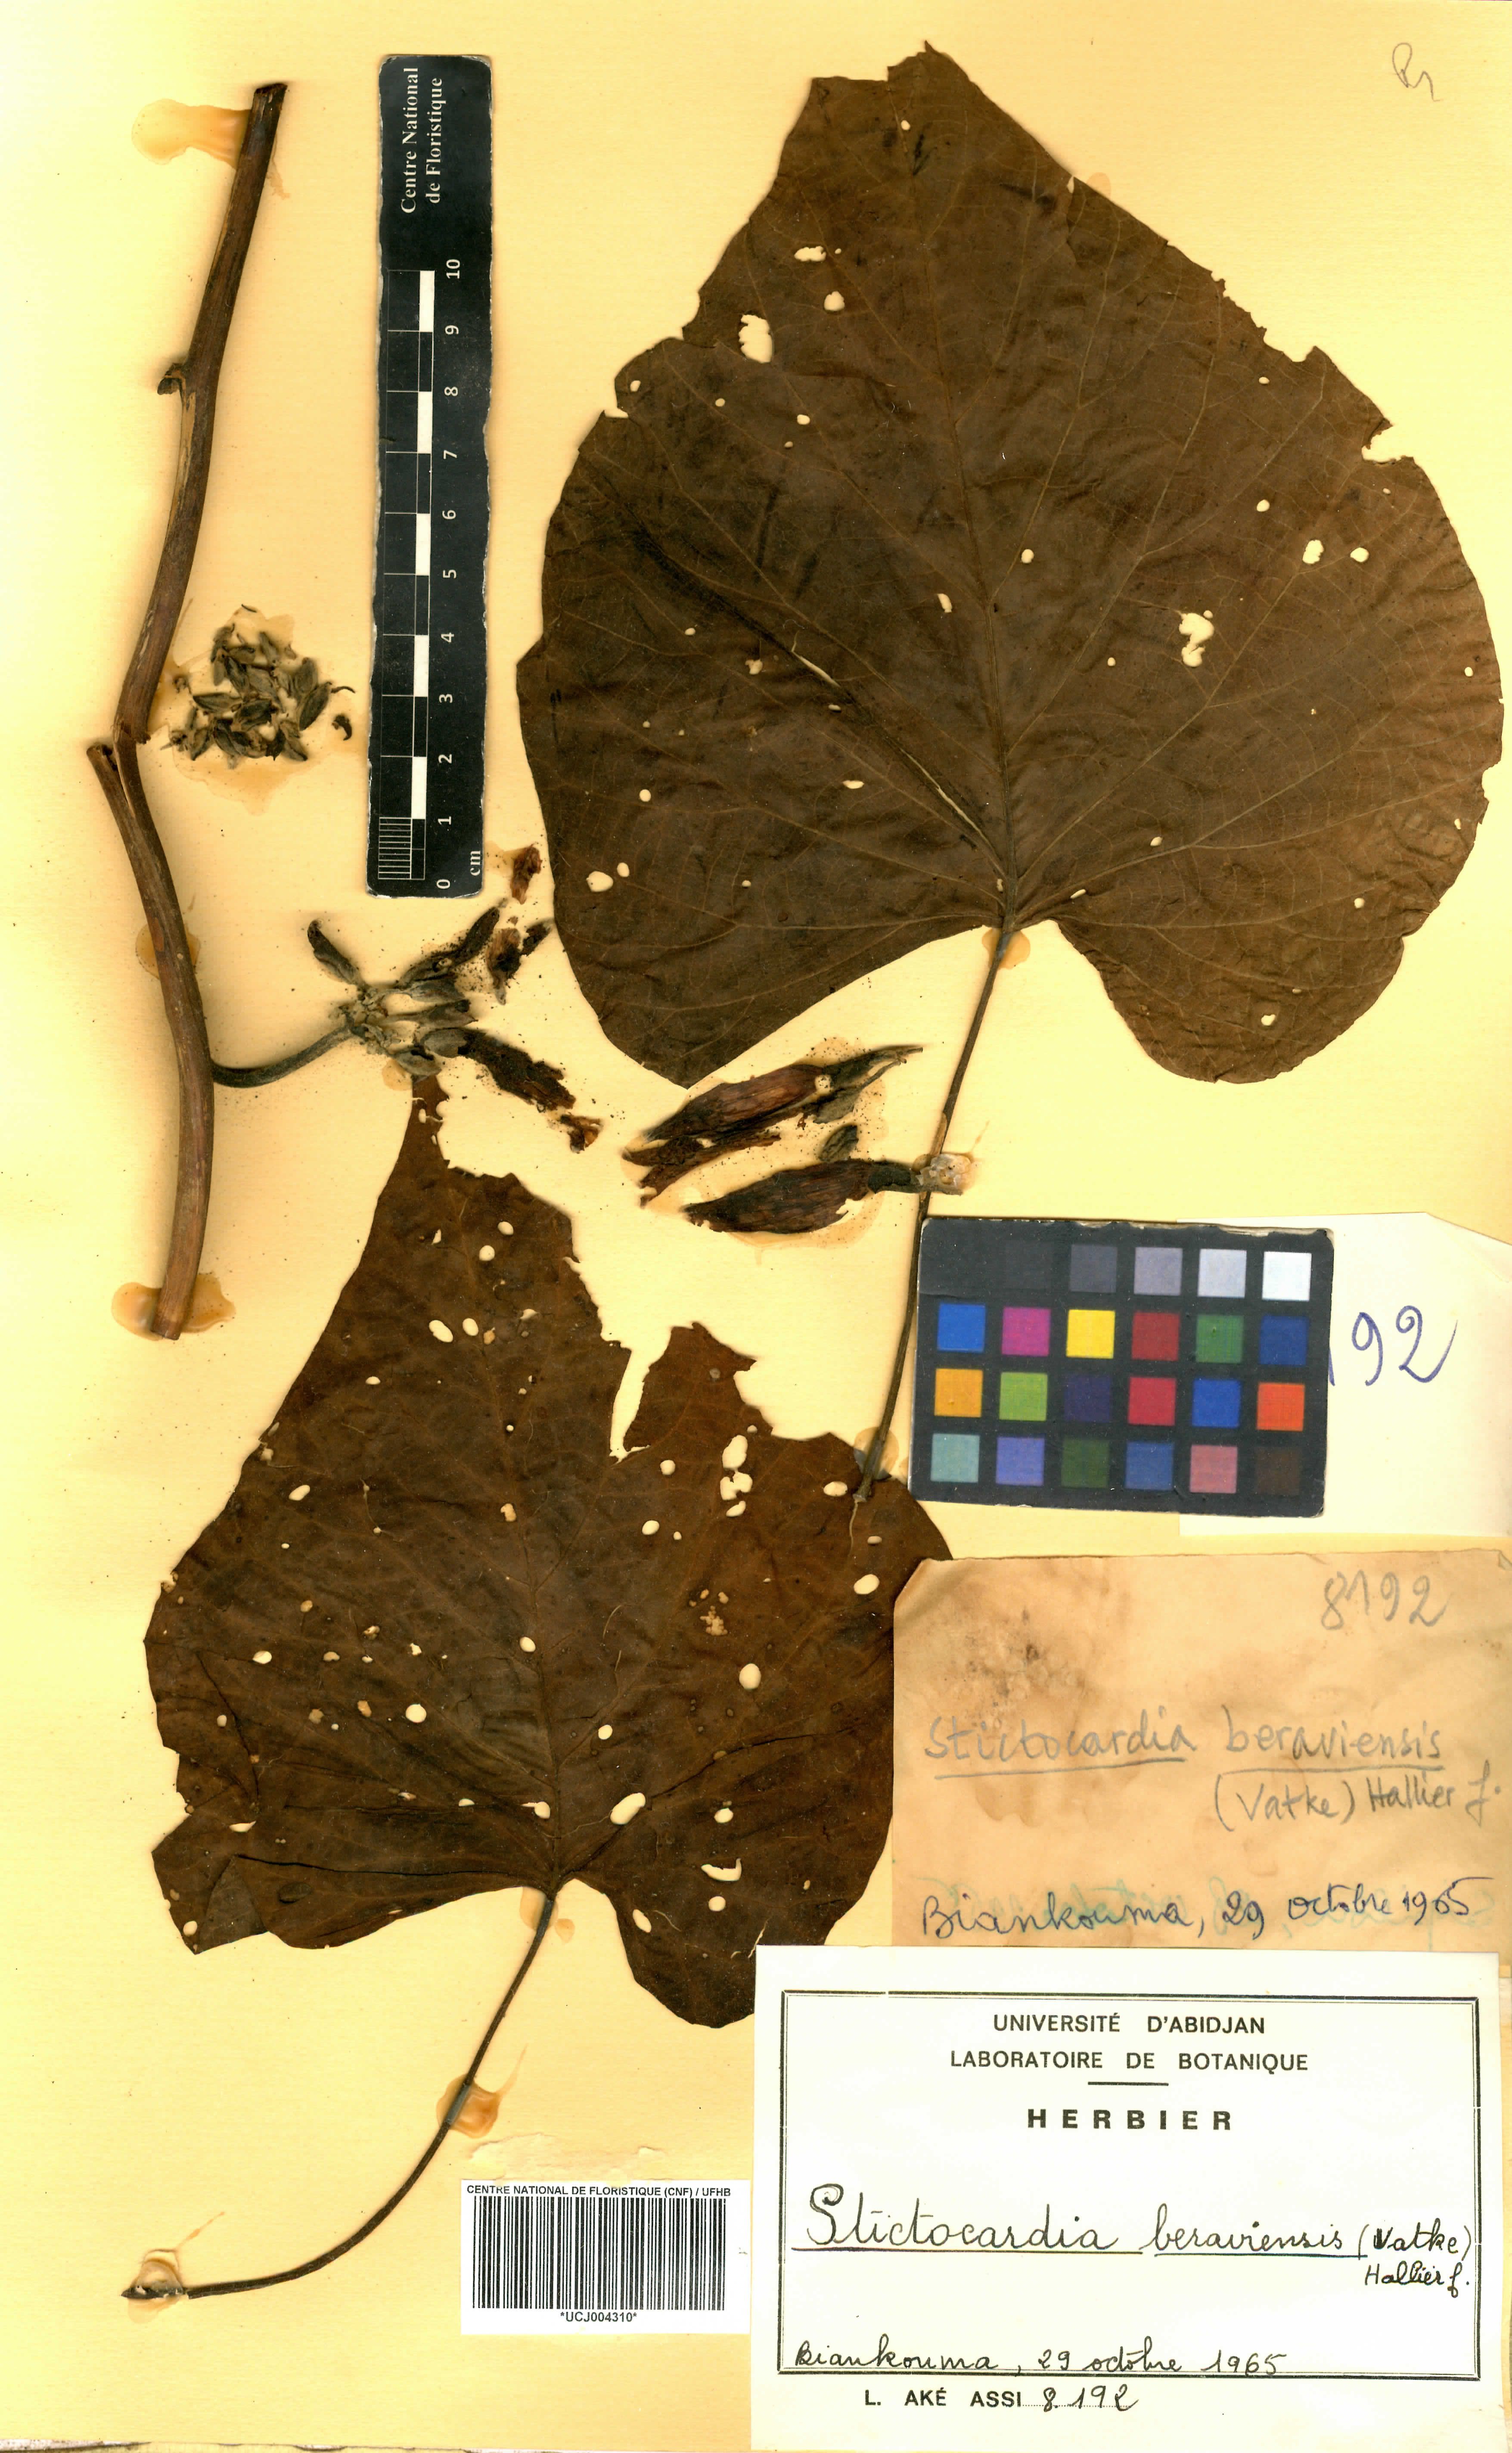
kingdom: Plantae
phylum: Tracheophyta
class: Magnoliopsida
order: Solanales
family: Convolvulaceae
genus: Stictocardia
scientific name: Stictocardia beraviensis
